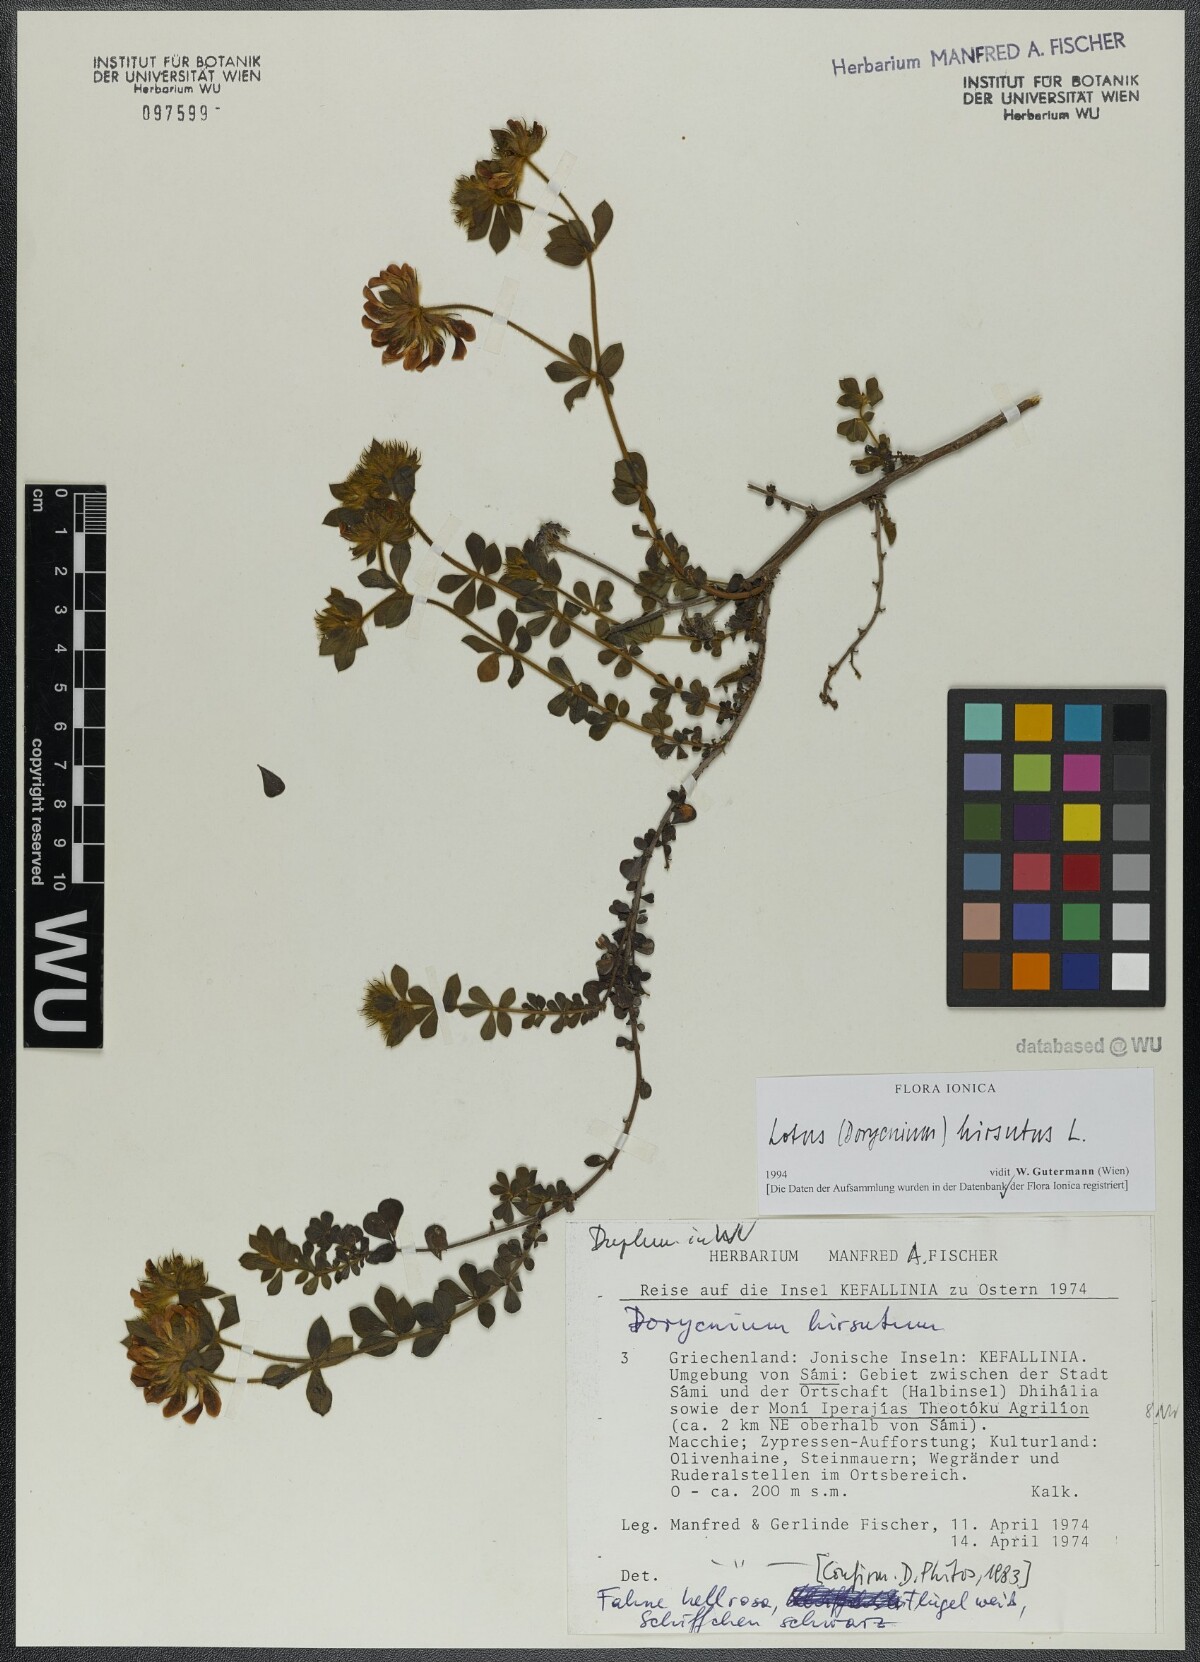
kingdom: Plantae
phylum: Tracheophyta
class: Magnoliopsida
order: Fabales
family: Fabaceae
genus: Lotus
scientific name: Lotus hirsutus
